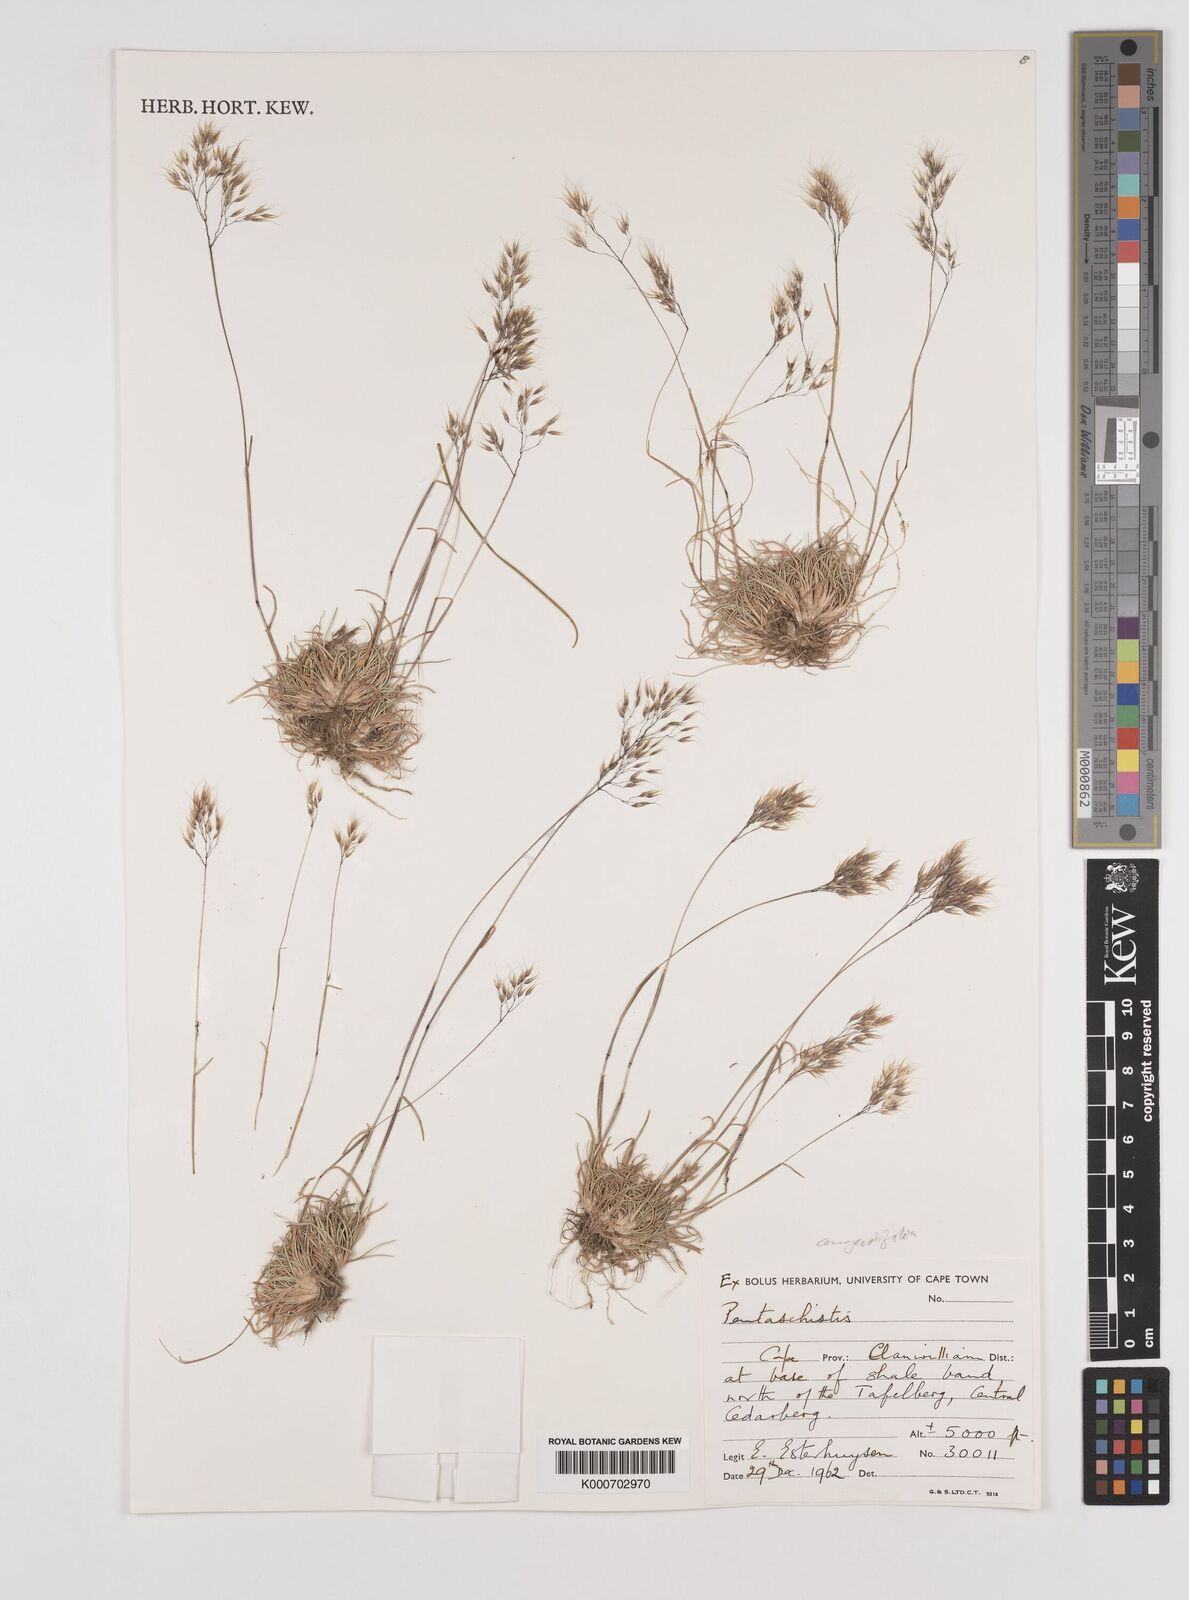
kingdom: Plantae
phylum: Tracheophyta
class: Liliopsida
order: Poales
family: Poaceae
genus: Pentameris
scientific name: Pentameris pallida
